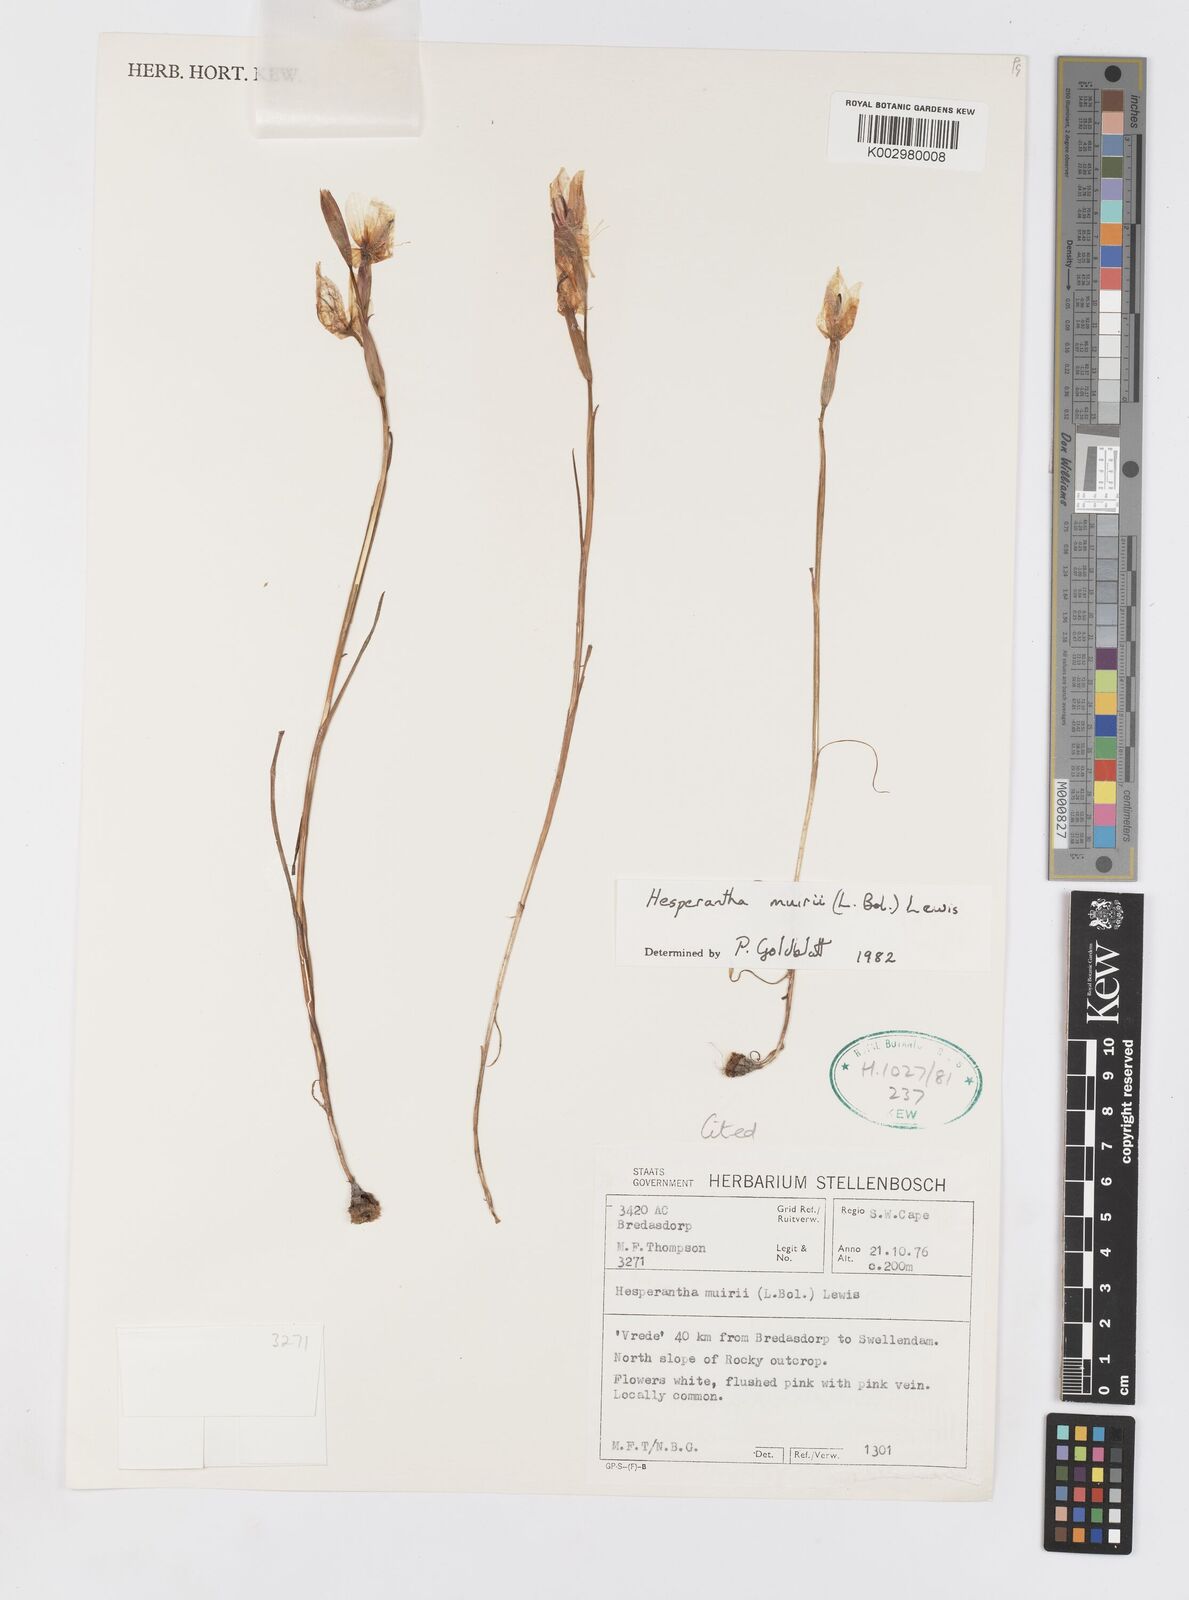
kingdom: Plantae
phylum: Tracheophyta
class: Liliopsida
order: Asparagales
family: Iridaceae
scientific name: Iridaceae
